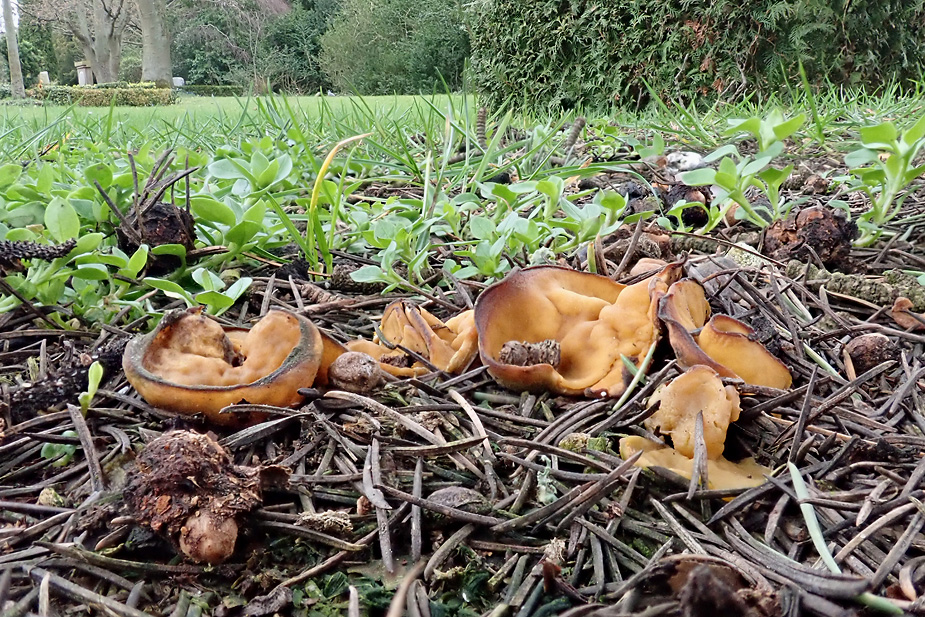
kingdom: Fungi
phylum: Ascomycota
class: Pezizomycetes
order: Pezizales
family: Pyronemataceae
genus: Sowerbyella
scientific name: Sowerbyella radiculata
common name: grøngul rodbæger
